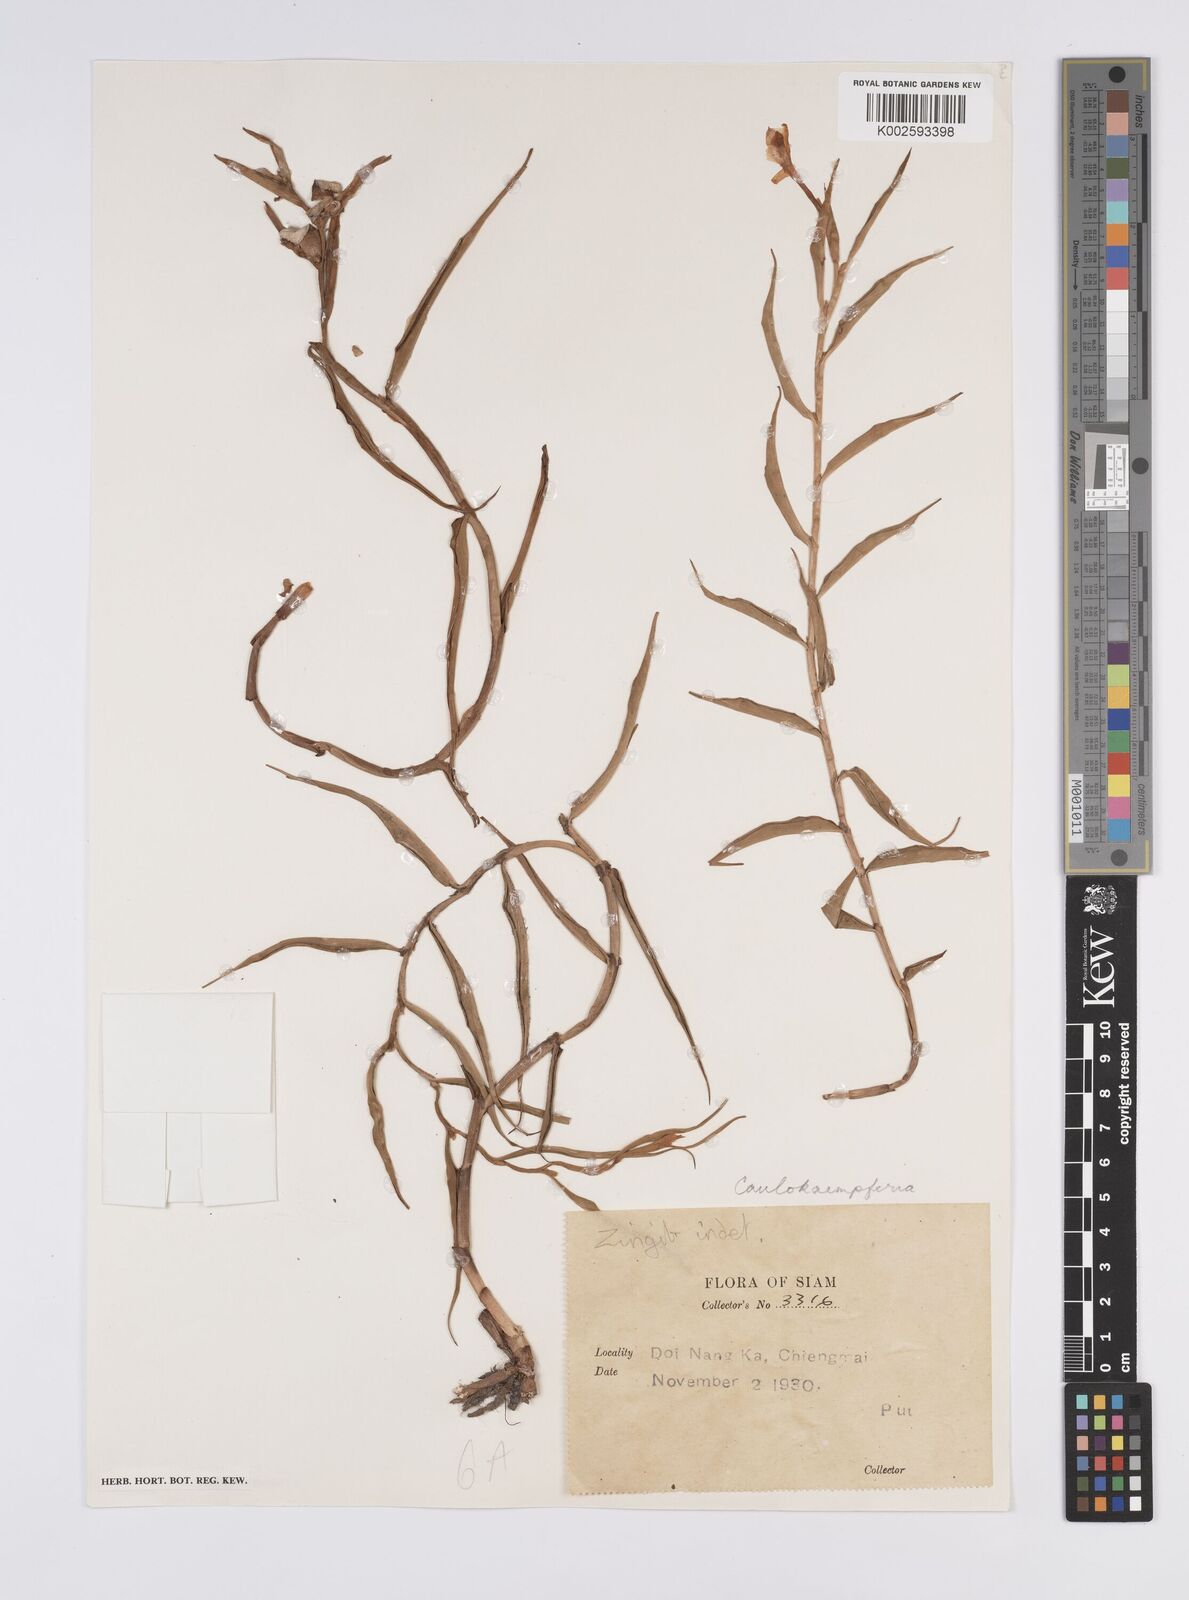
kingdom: Plantae
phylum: Tracheophyta
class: Liliopsida
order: Zingiberales
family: Zingiberaceae
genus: Caulokaempferia
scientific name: Caulokaempferia
